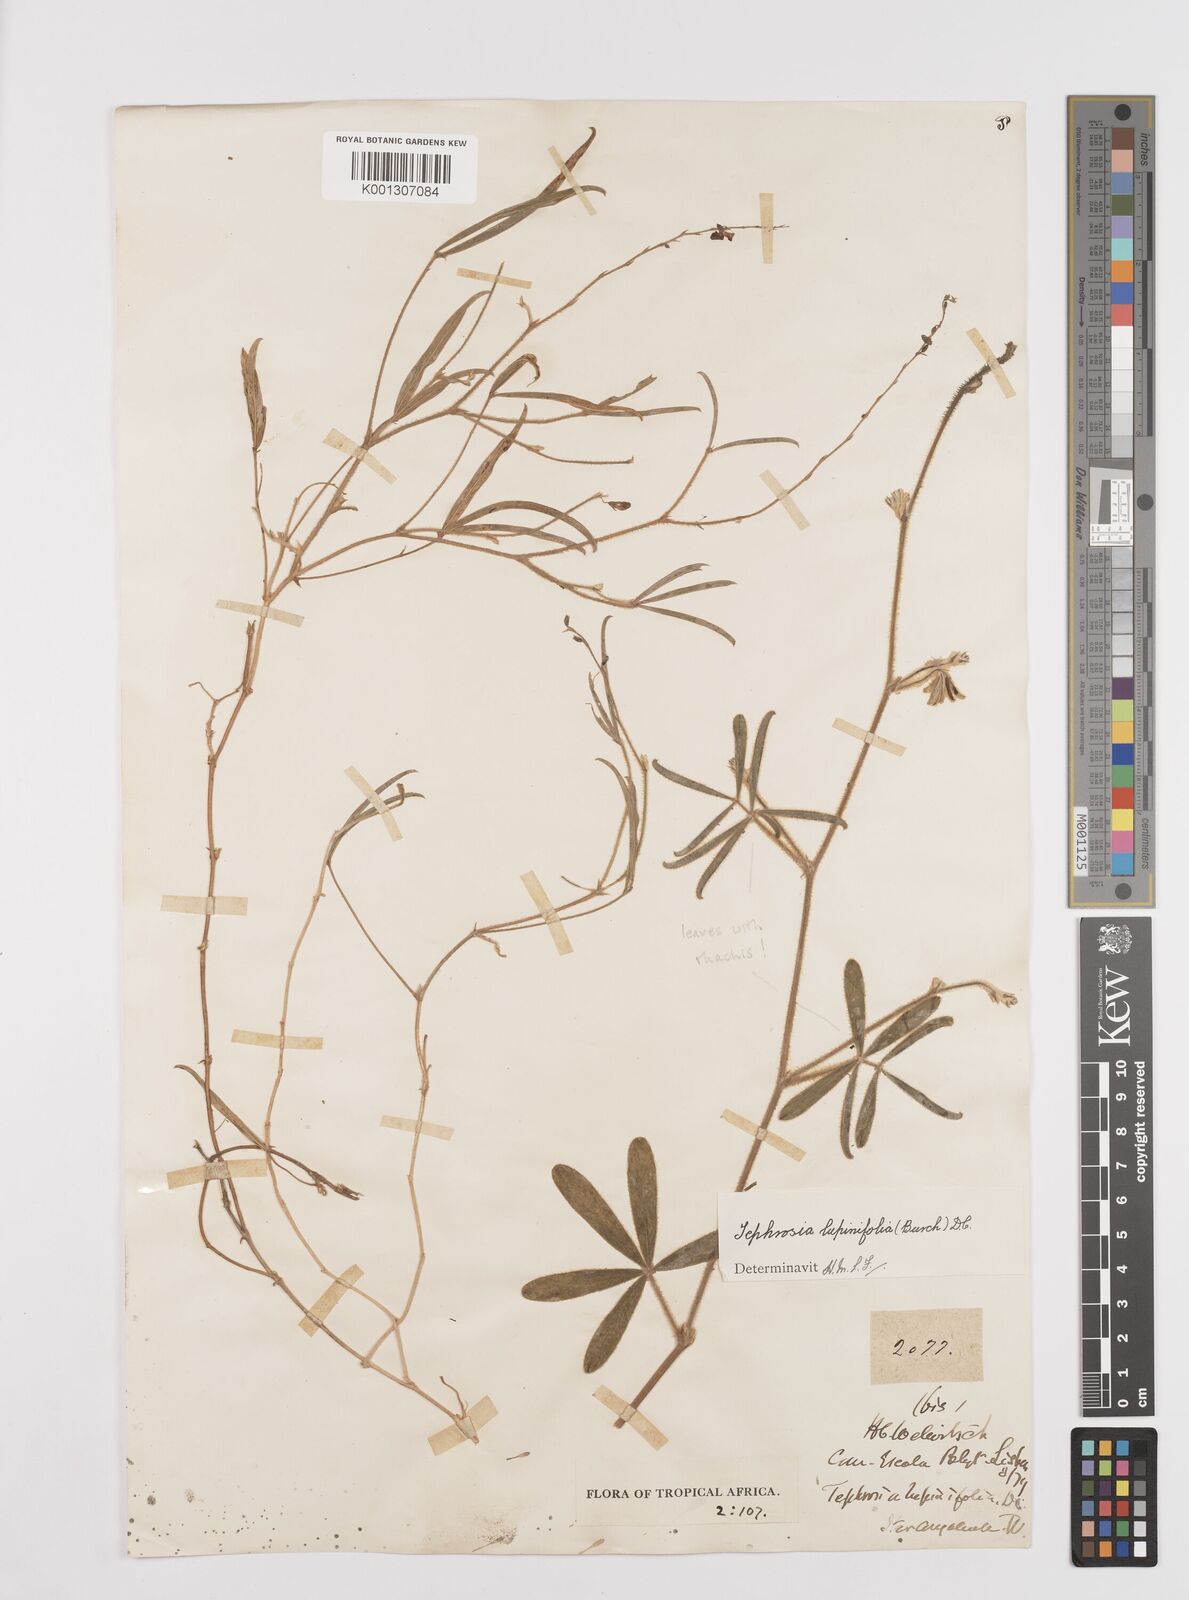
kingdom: Plantae
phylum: Tracheophyta
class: Magnoliopsida
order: Fabales
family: Fabaceae
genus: Tephrosia
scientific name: Tephrosia lupinifolia
